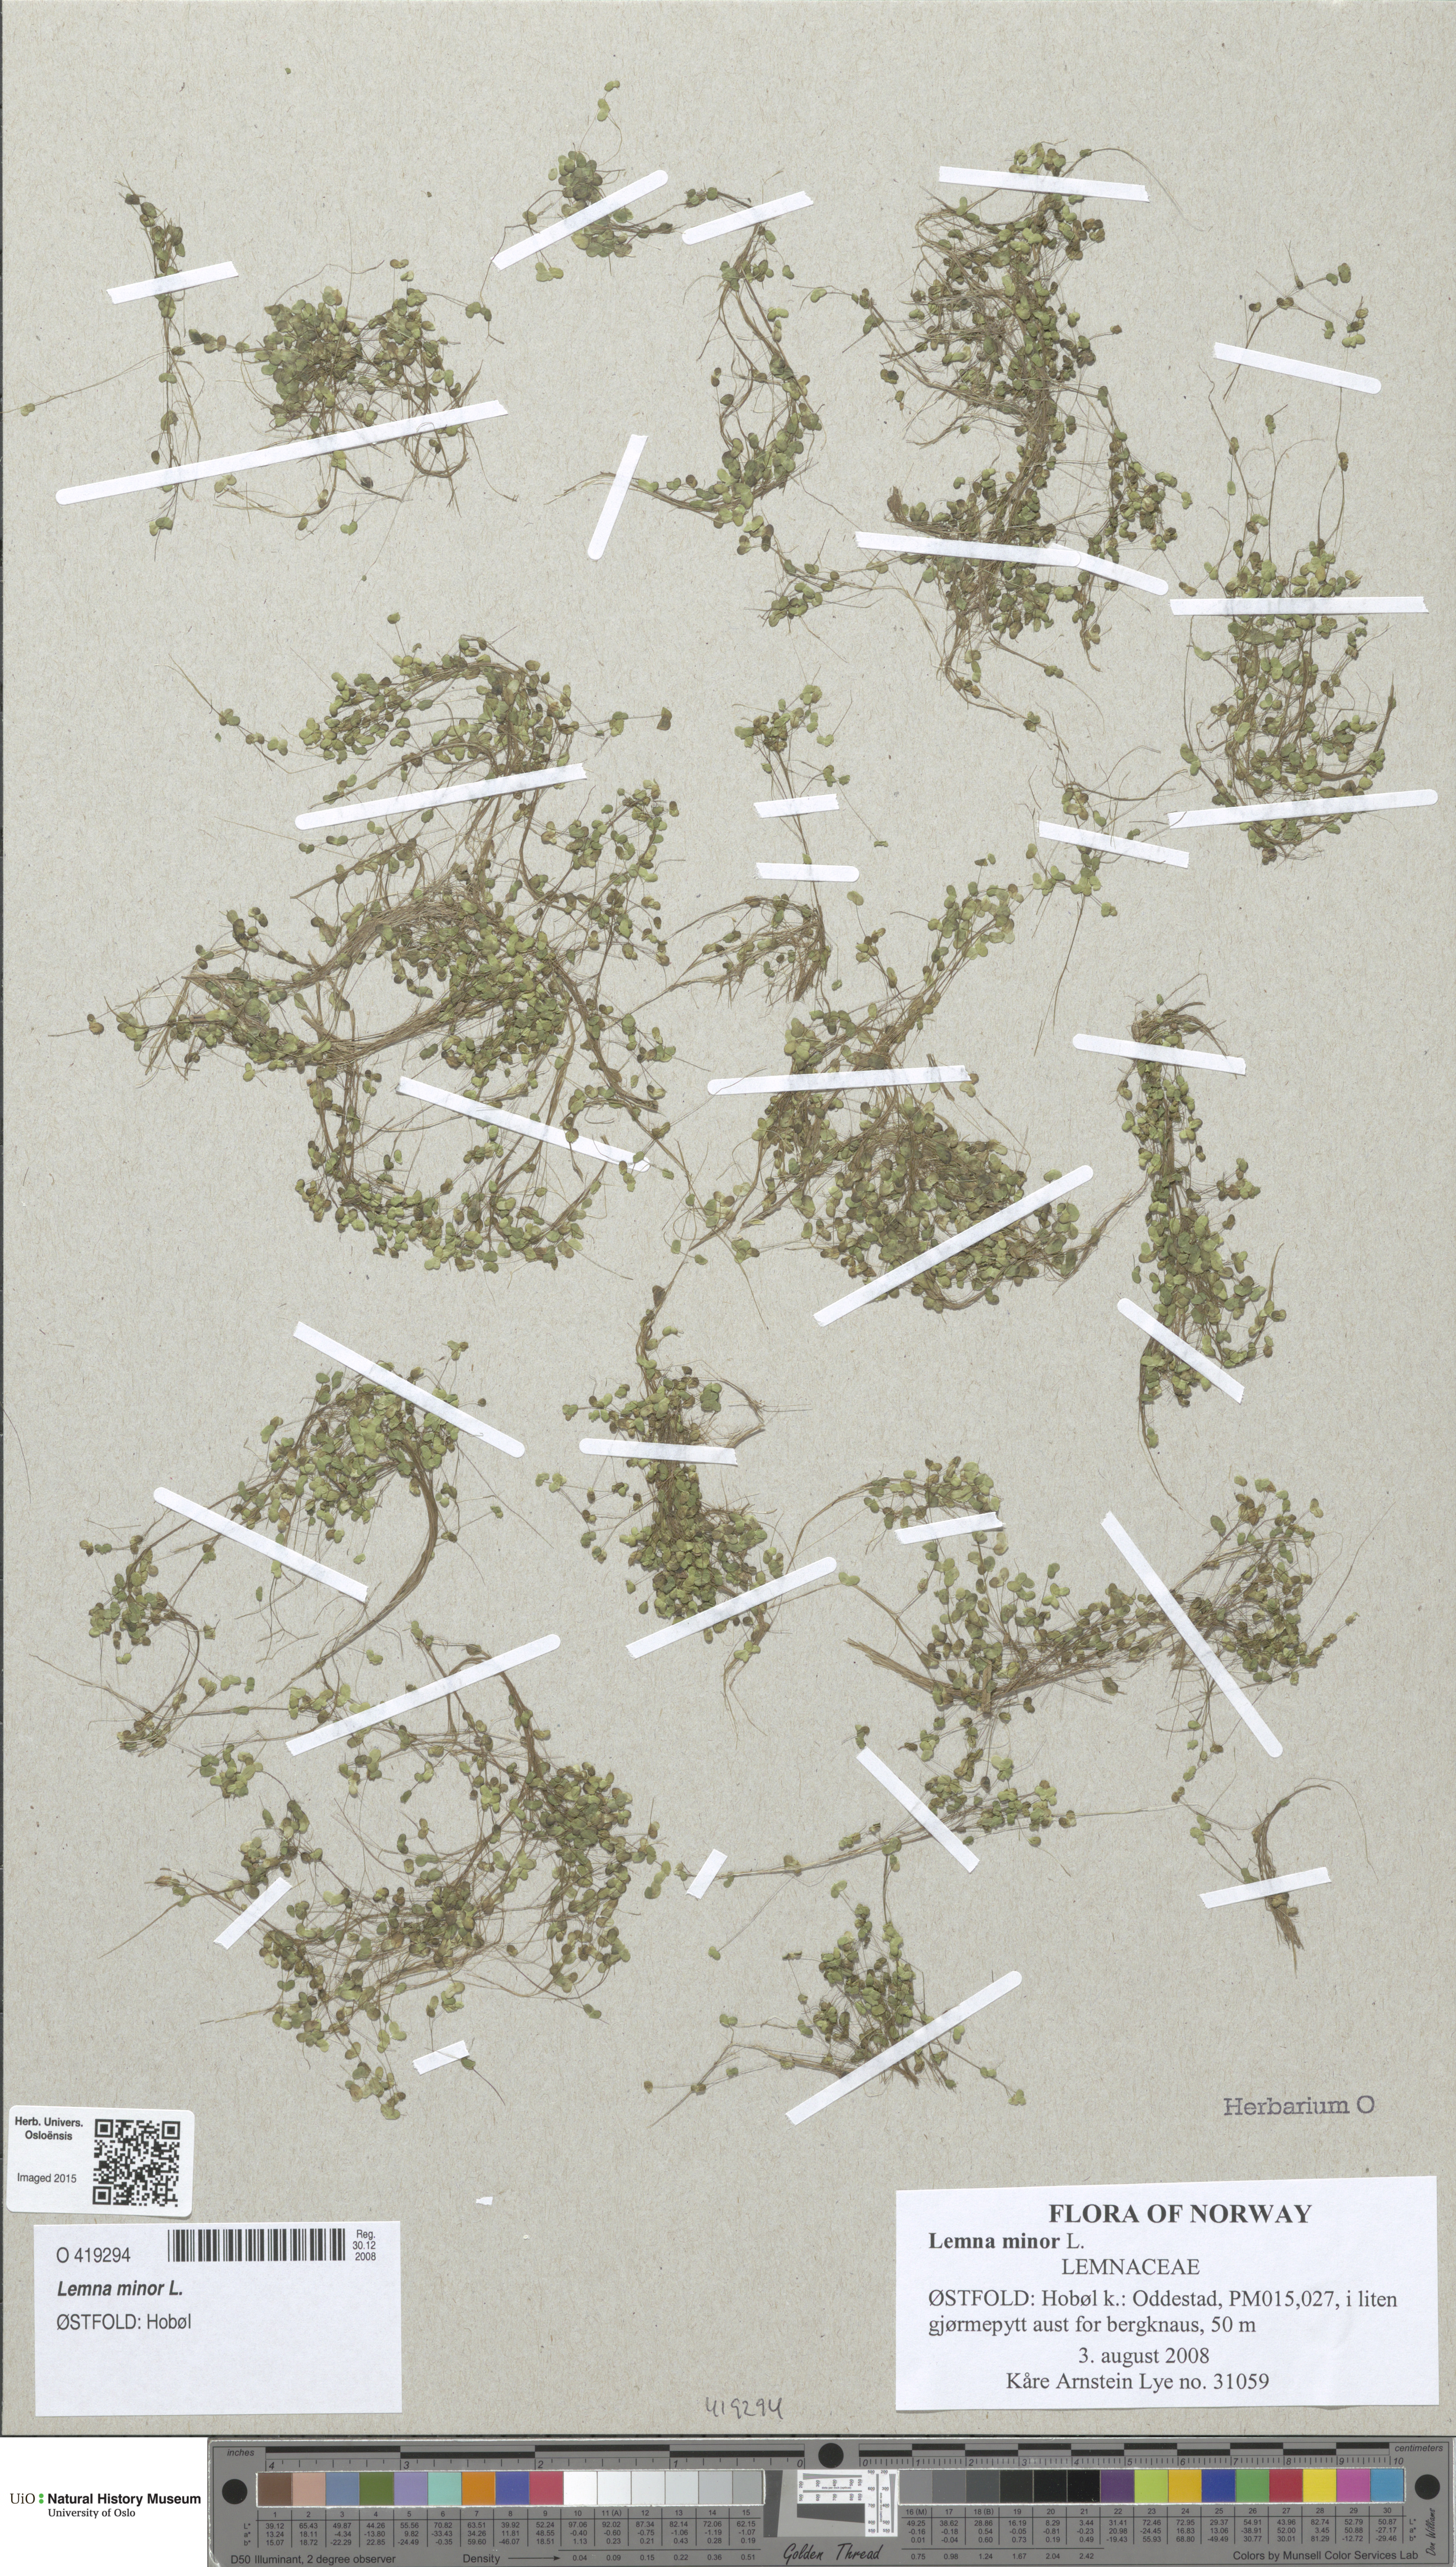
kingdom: Plantae
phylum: Tracheophyta
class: Liliopsida
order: Alismatales
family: Araceae
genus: Lemna
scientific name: Lemna minor
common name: Common duckweed
